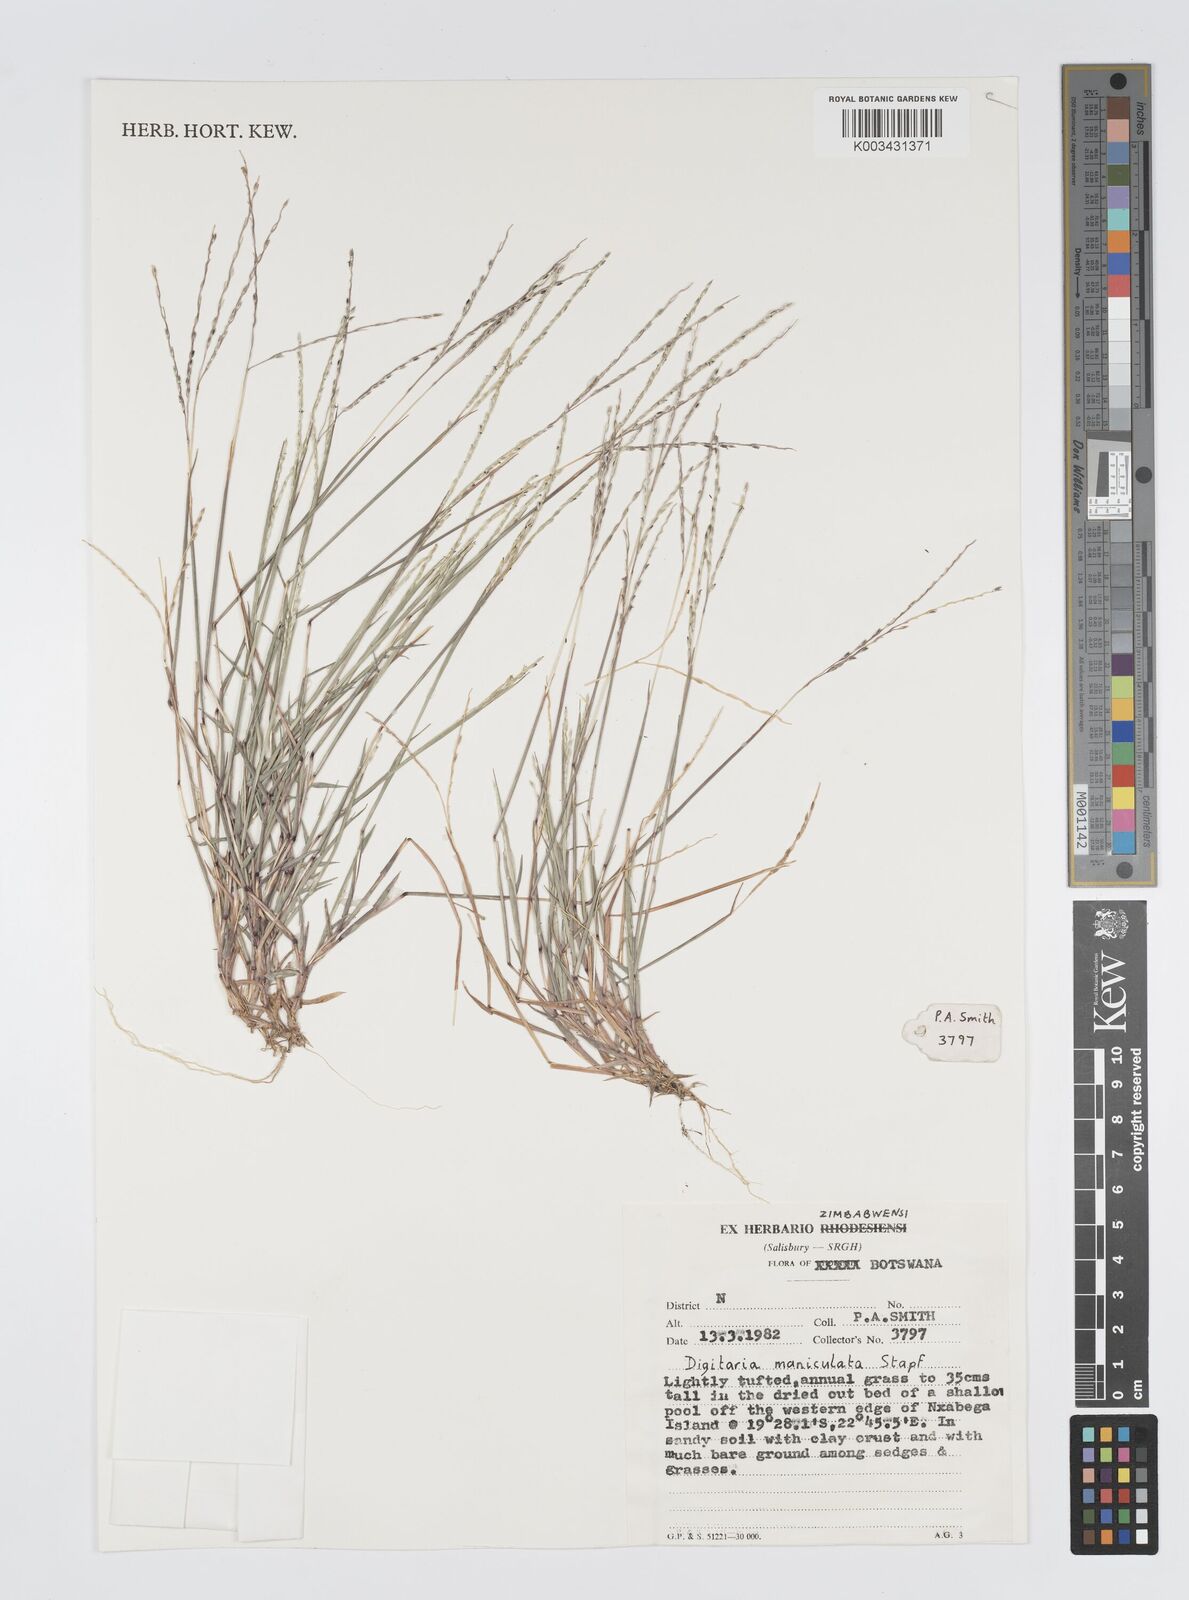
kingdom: Plantae
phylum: Tracheophyta
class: Liliopsida
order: Poales
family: Poaceae
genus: Digitaria
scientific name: Digitaria maniculata
